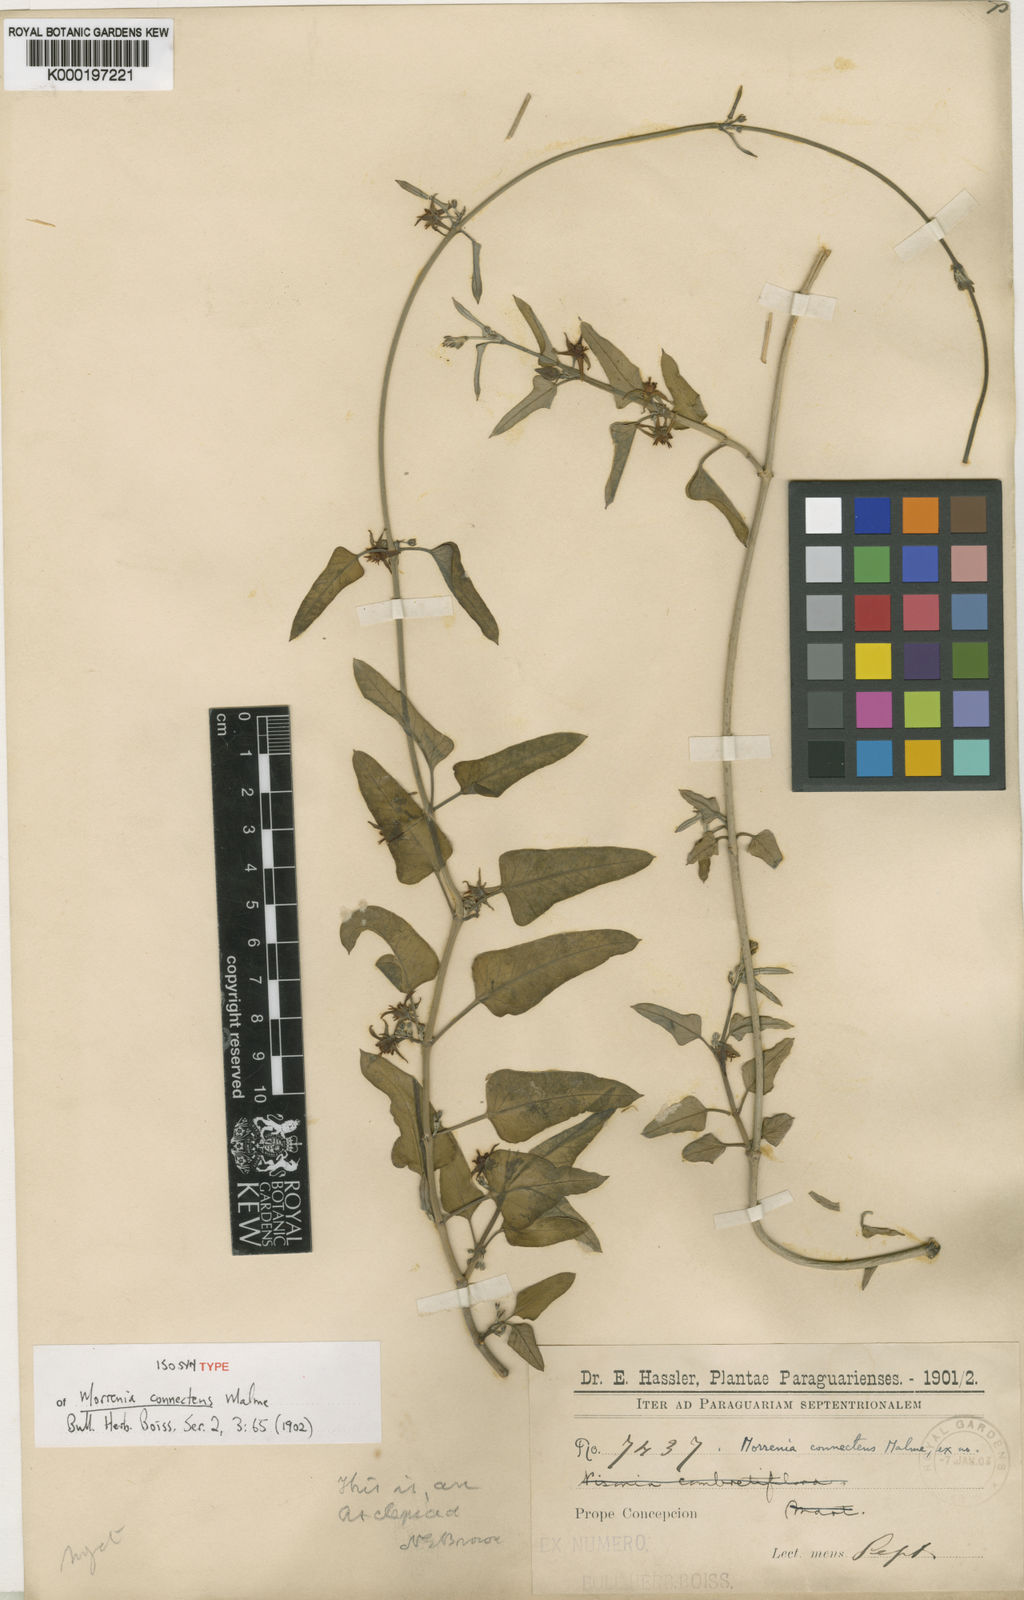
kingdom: Plantae
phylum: Tracheophyta
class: Magnoliopsida
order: Gentianales
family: Apocynaceae
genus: Araujia
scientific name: Araujia variegata
